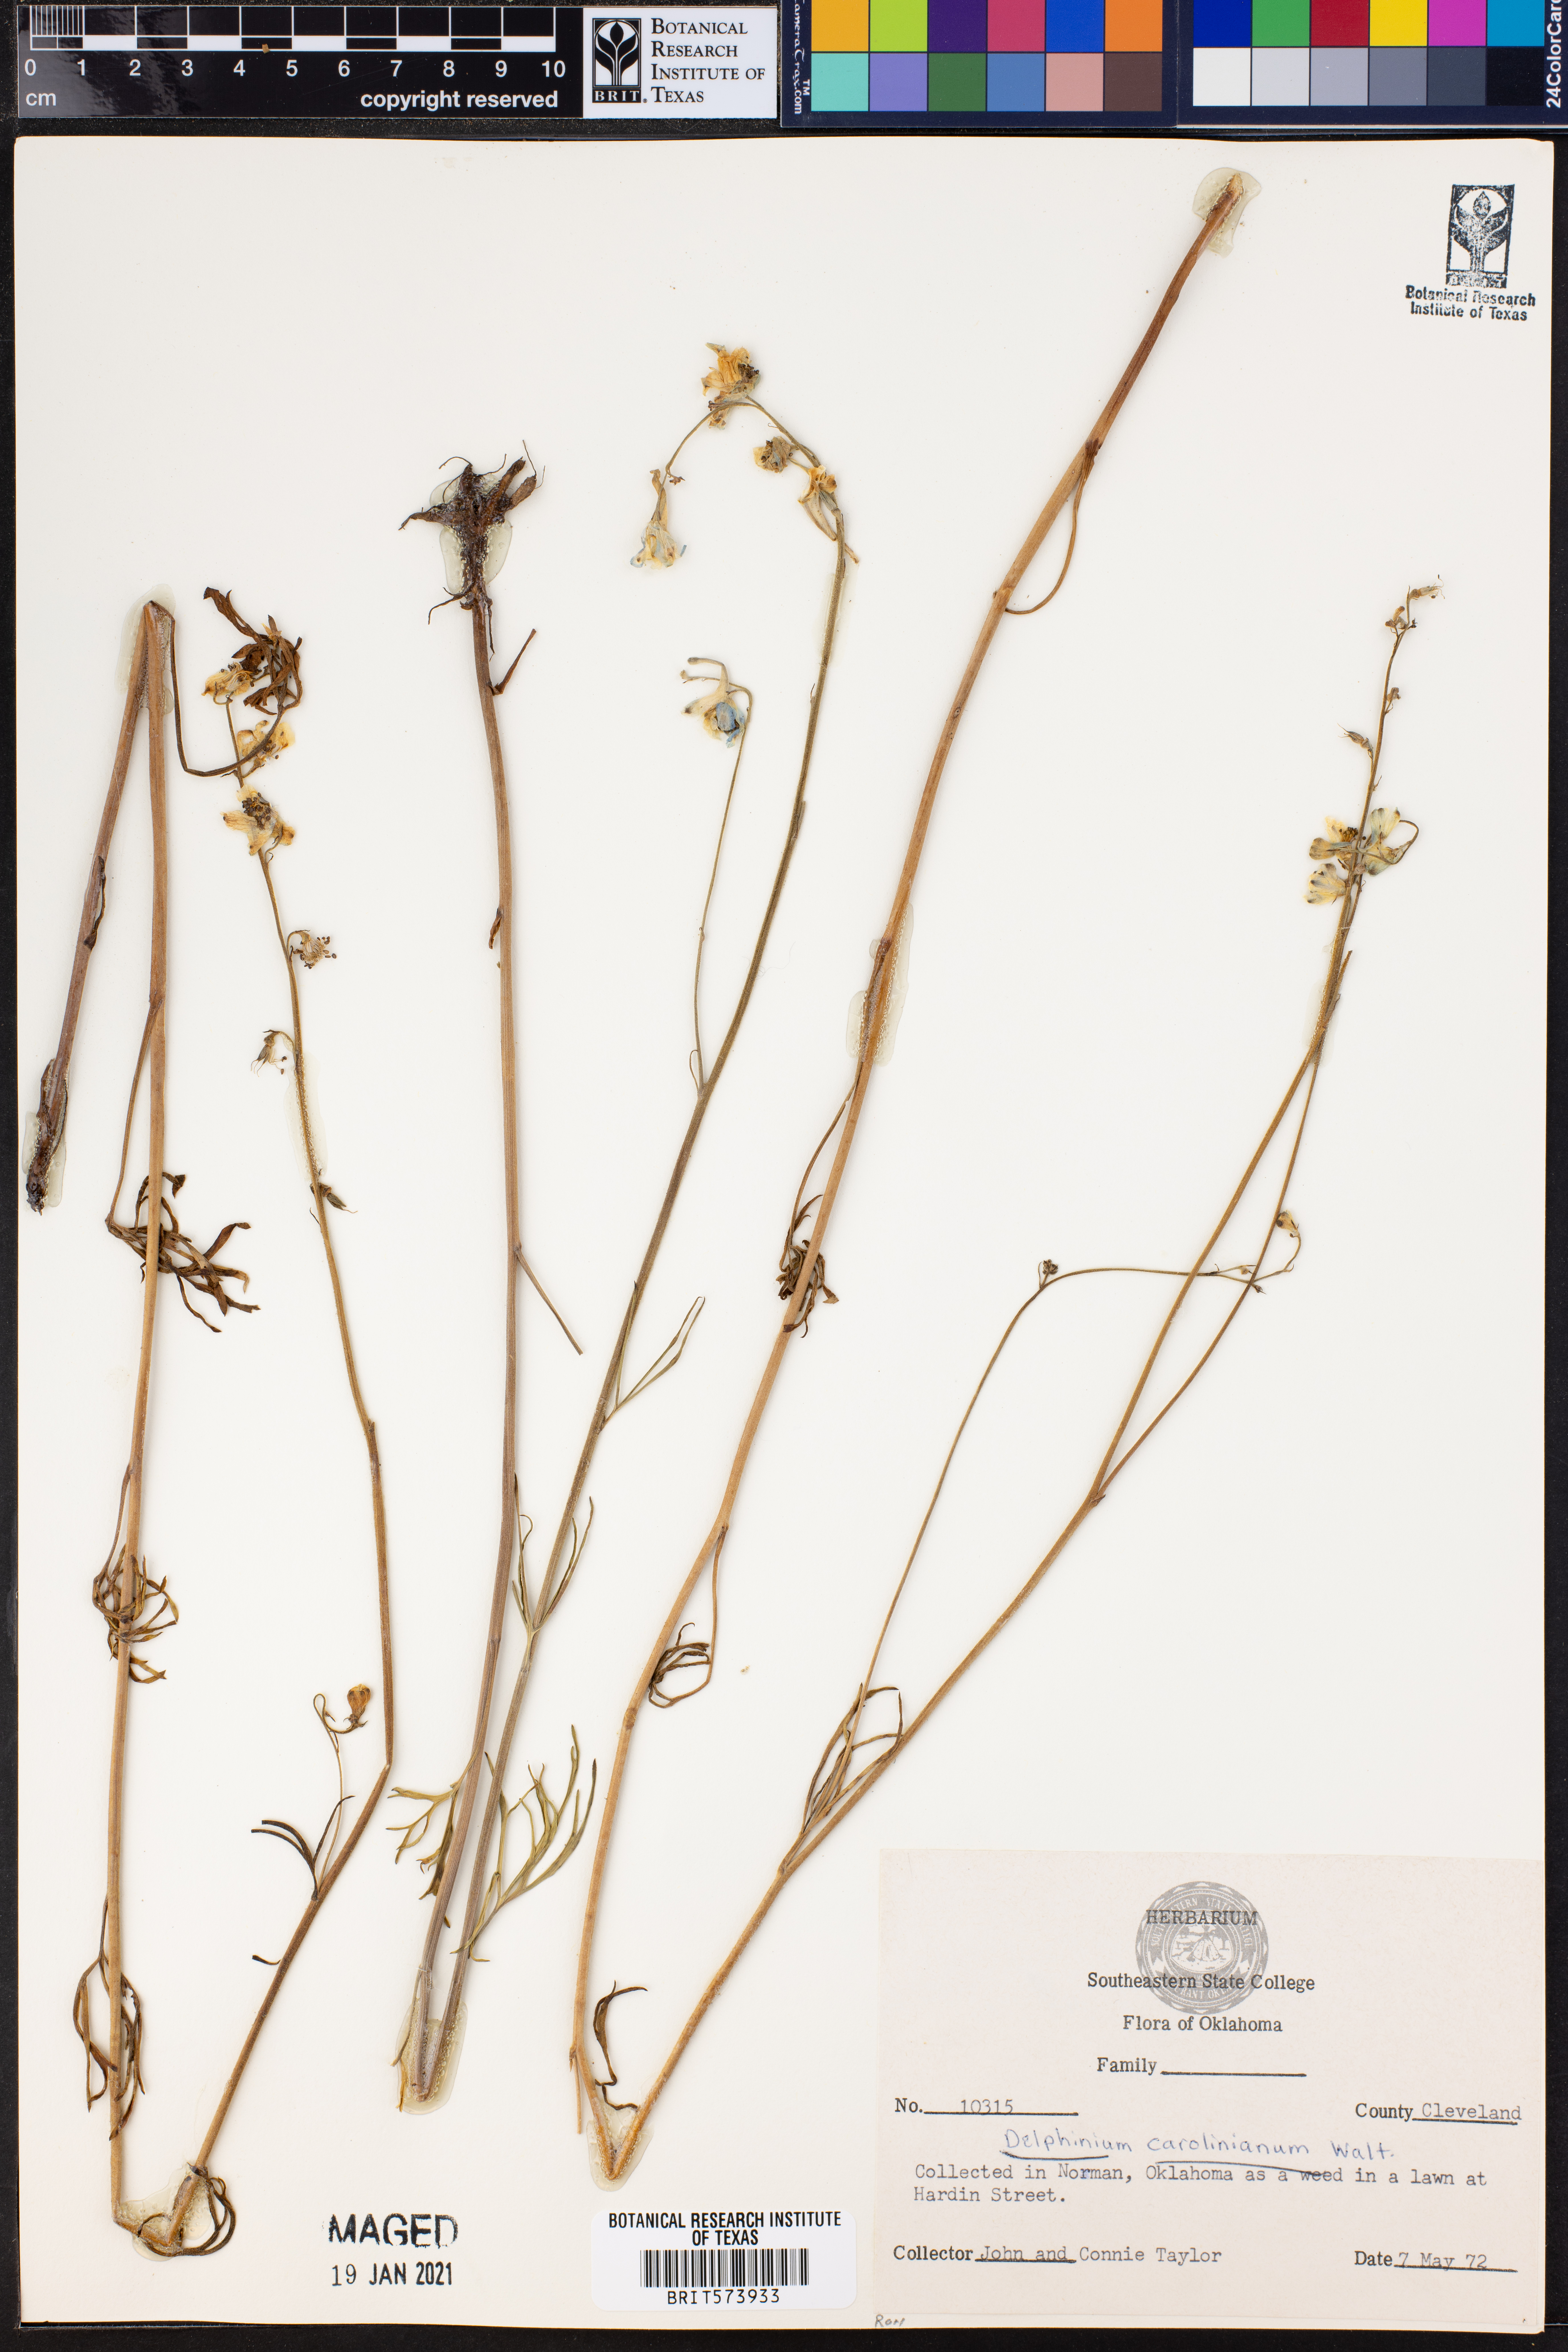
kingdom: Plantae
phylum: Tracheophyta
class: Magnoliopsida
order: Ranunculales
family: Ranunculaceae
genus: Delphinium
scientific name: Delphinium carolinianum
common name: Carolina larkspur
